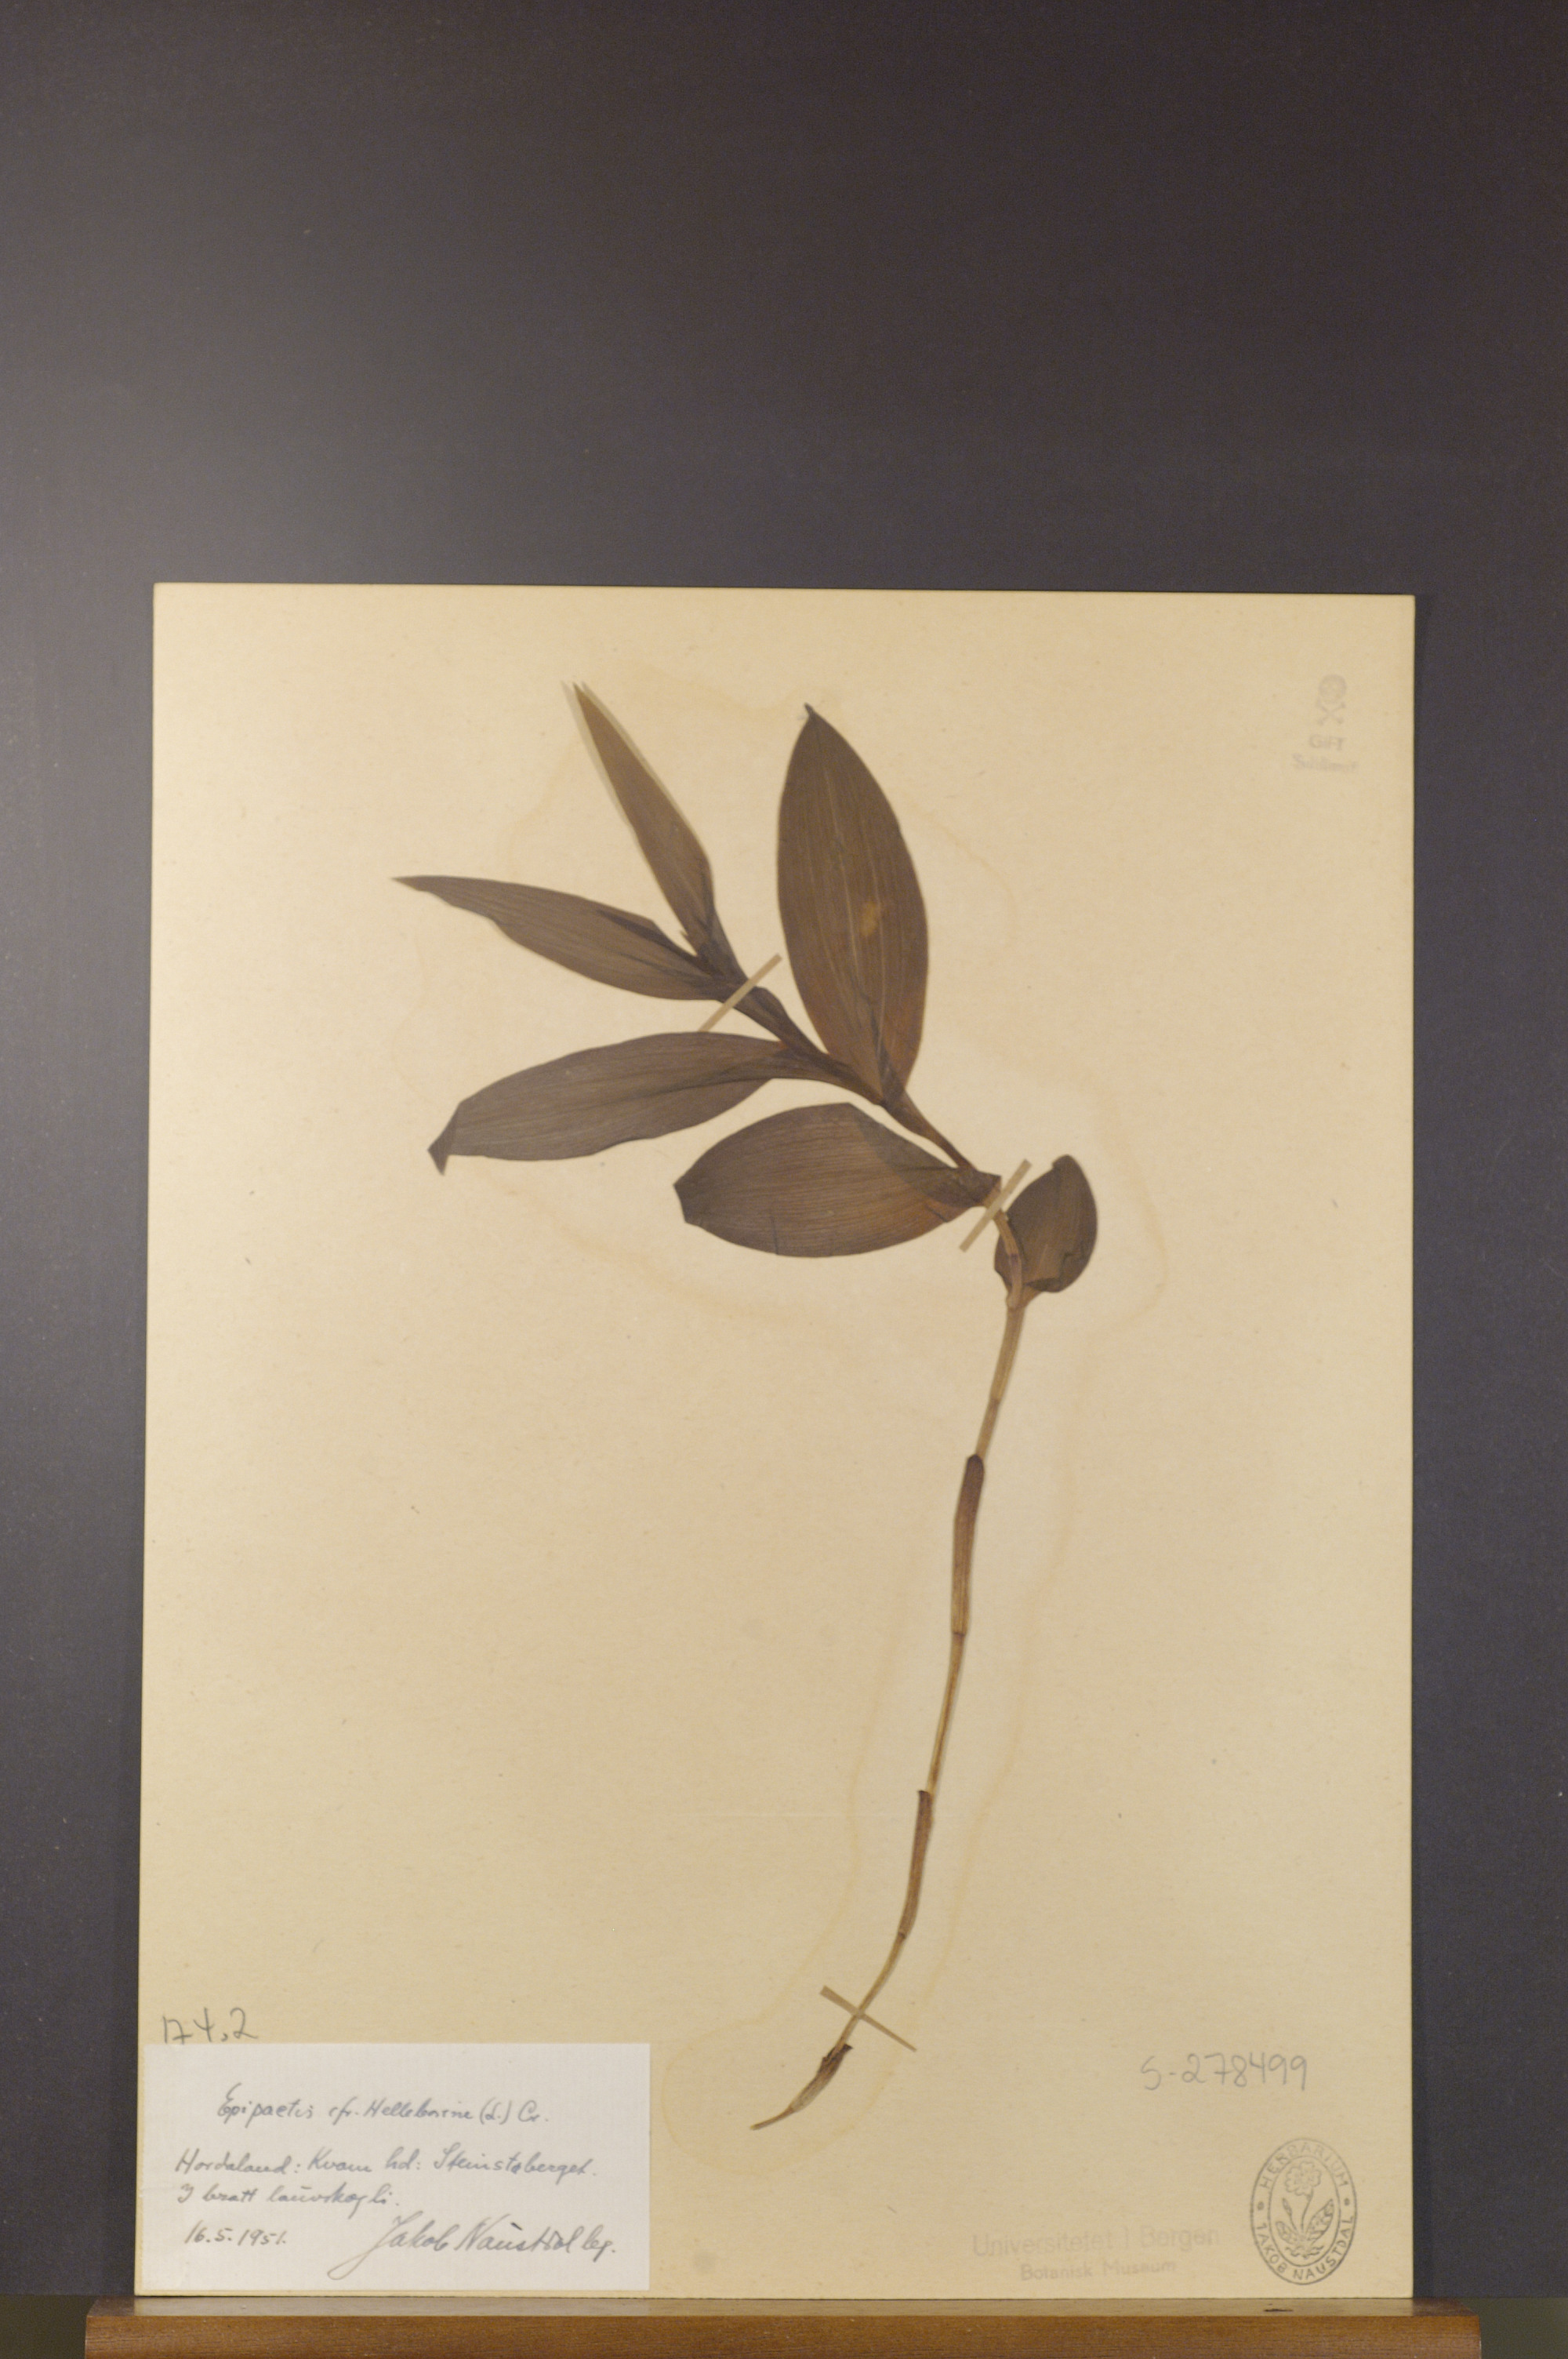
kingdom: Plantae
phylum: Tracheophyta
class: Liliopsida
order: Asparagales
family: Orchidaceae
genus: Epipactis
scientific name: Epipactis helleborine
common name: Broad-leaved helleborine
